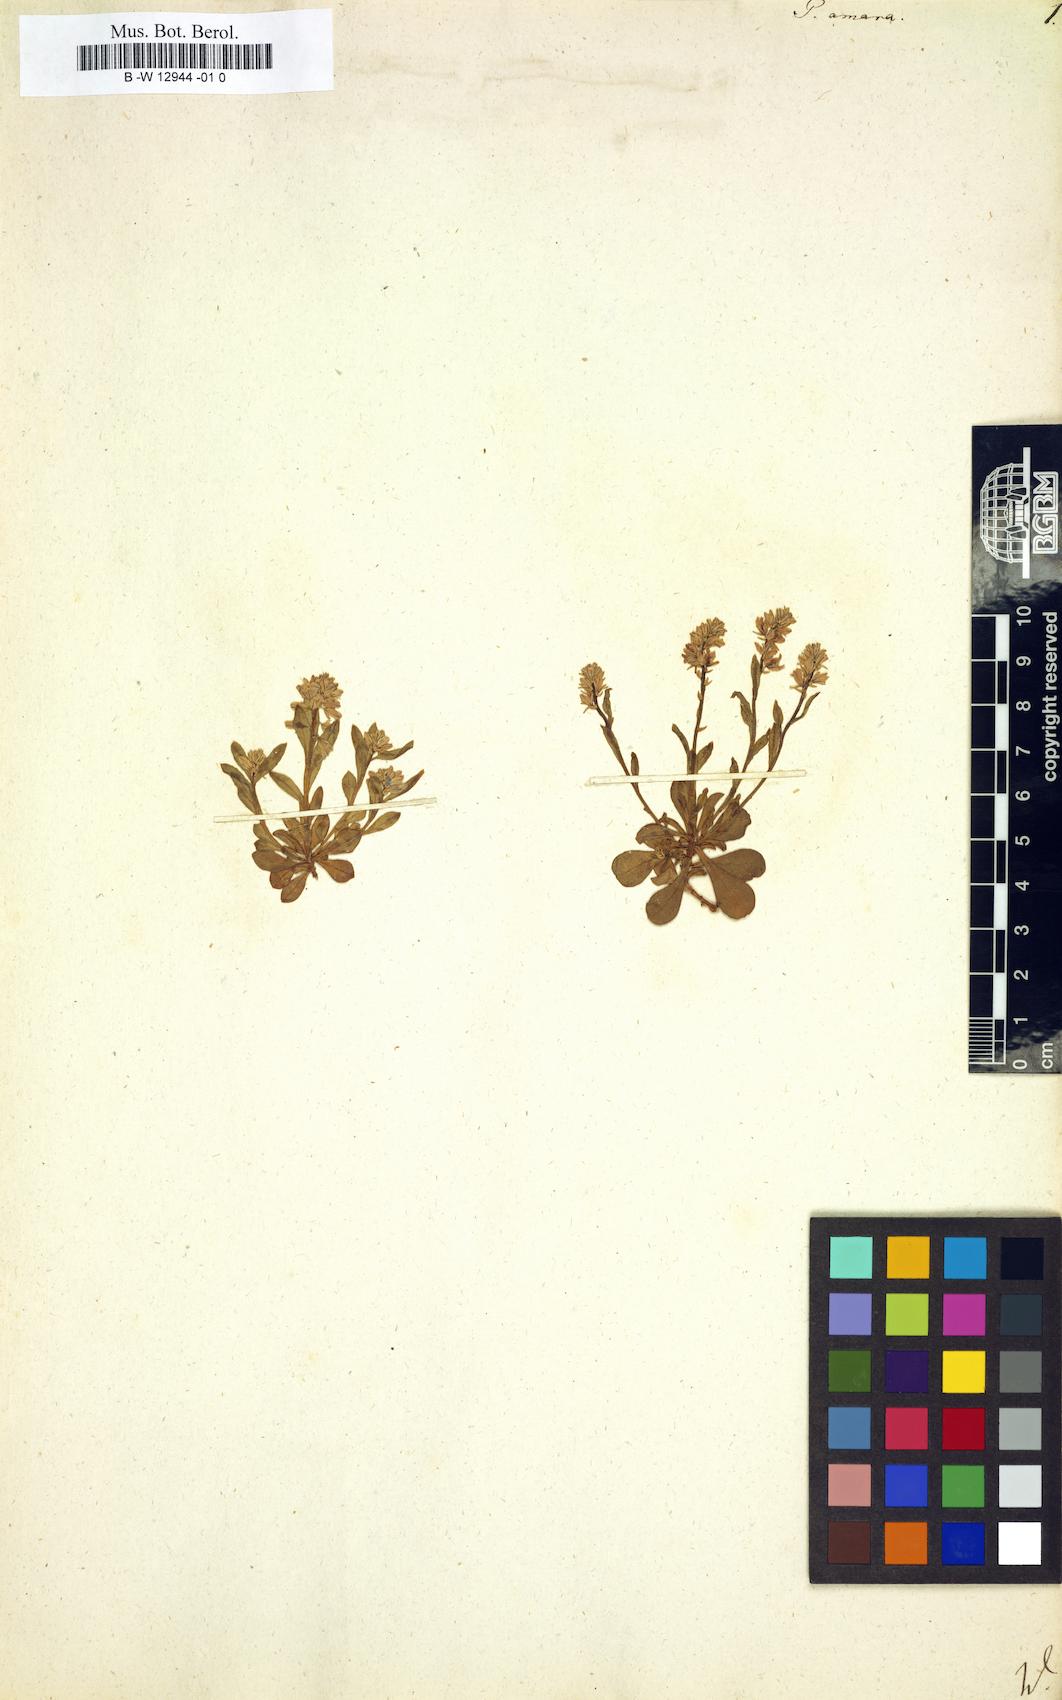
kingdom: Plantae
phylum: Tracheophyta
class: Magnoliopsida
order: Fabales
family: Polygalaceae
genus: Polygala
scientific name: Polygala amara
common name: Milkwort
